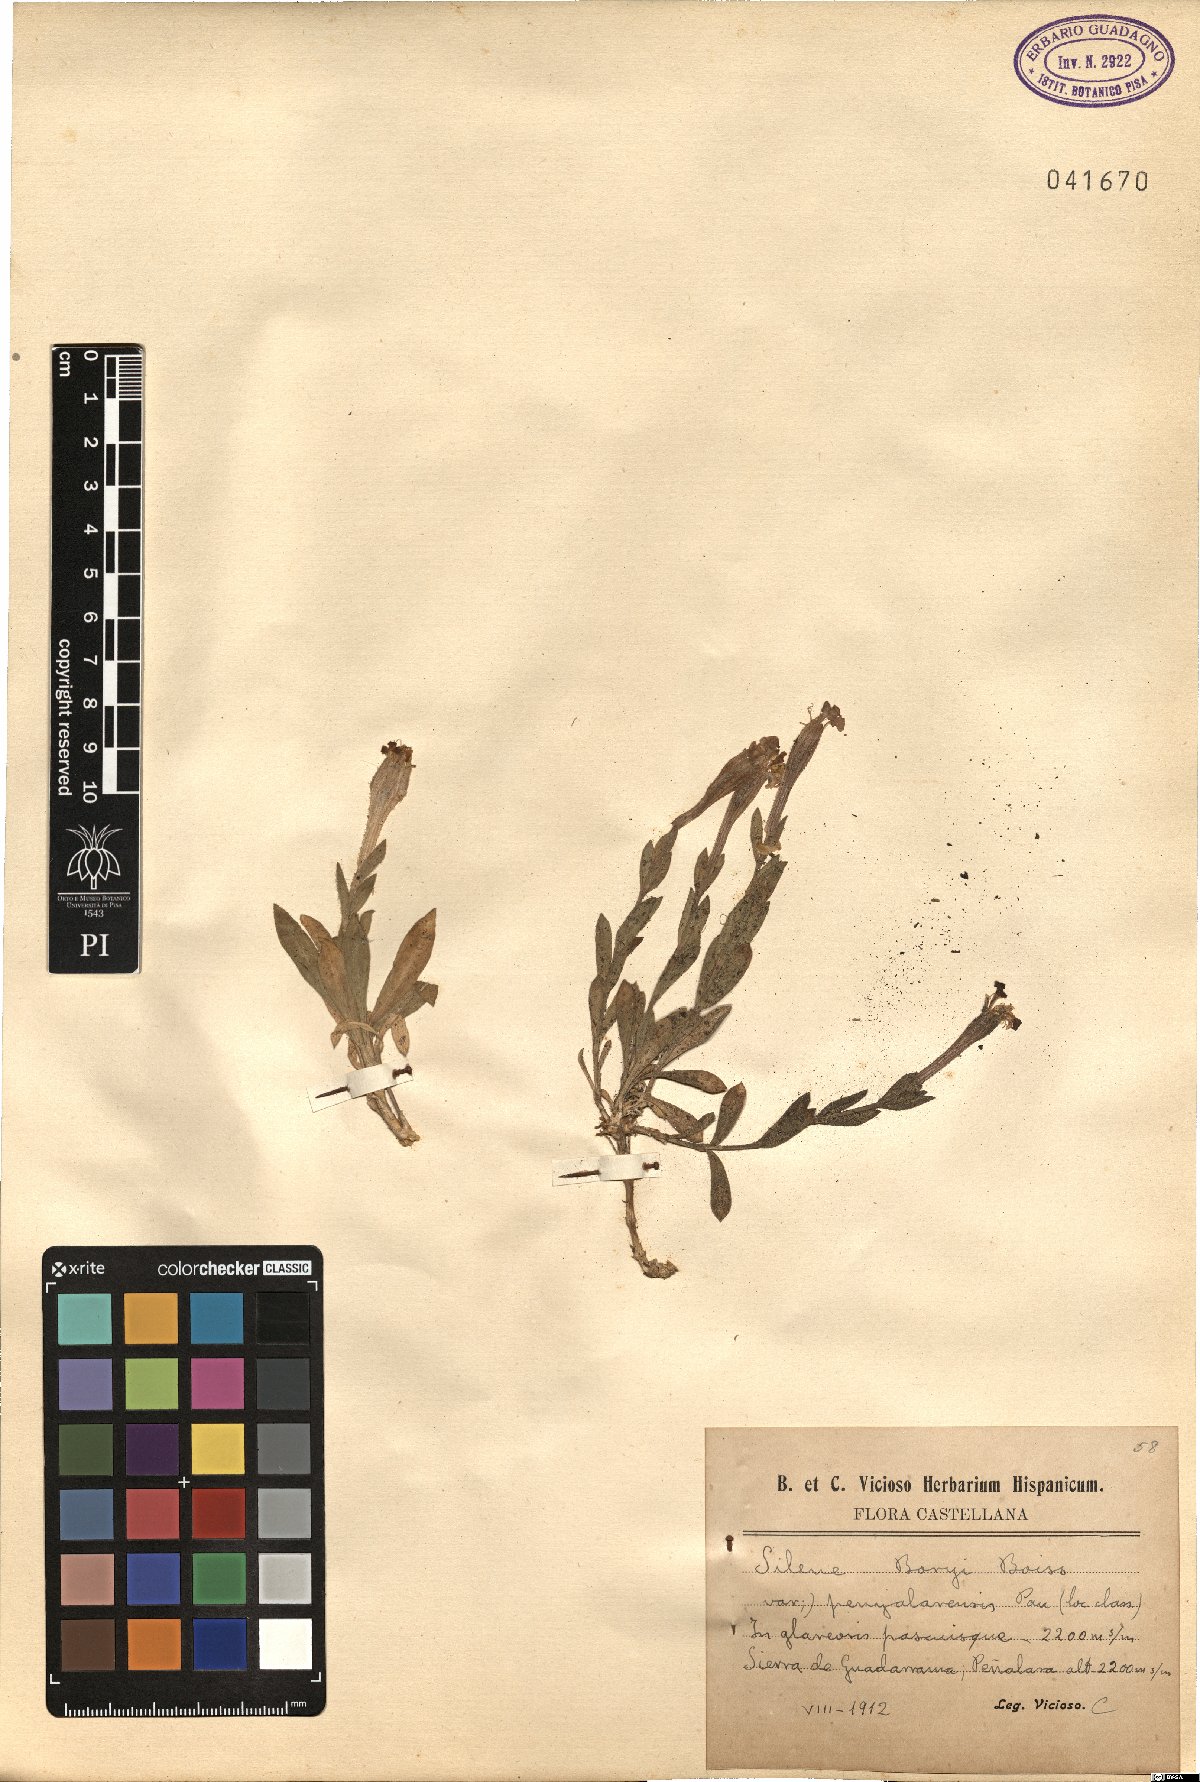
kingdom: Plantae
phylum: Tracheophyta
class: Magnoliopsida
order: Caryophyllales
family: Caryophyllaceae
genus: Silene
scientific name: Silene boryi
